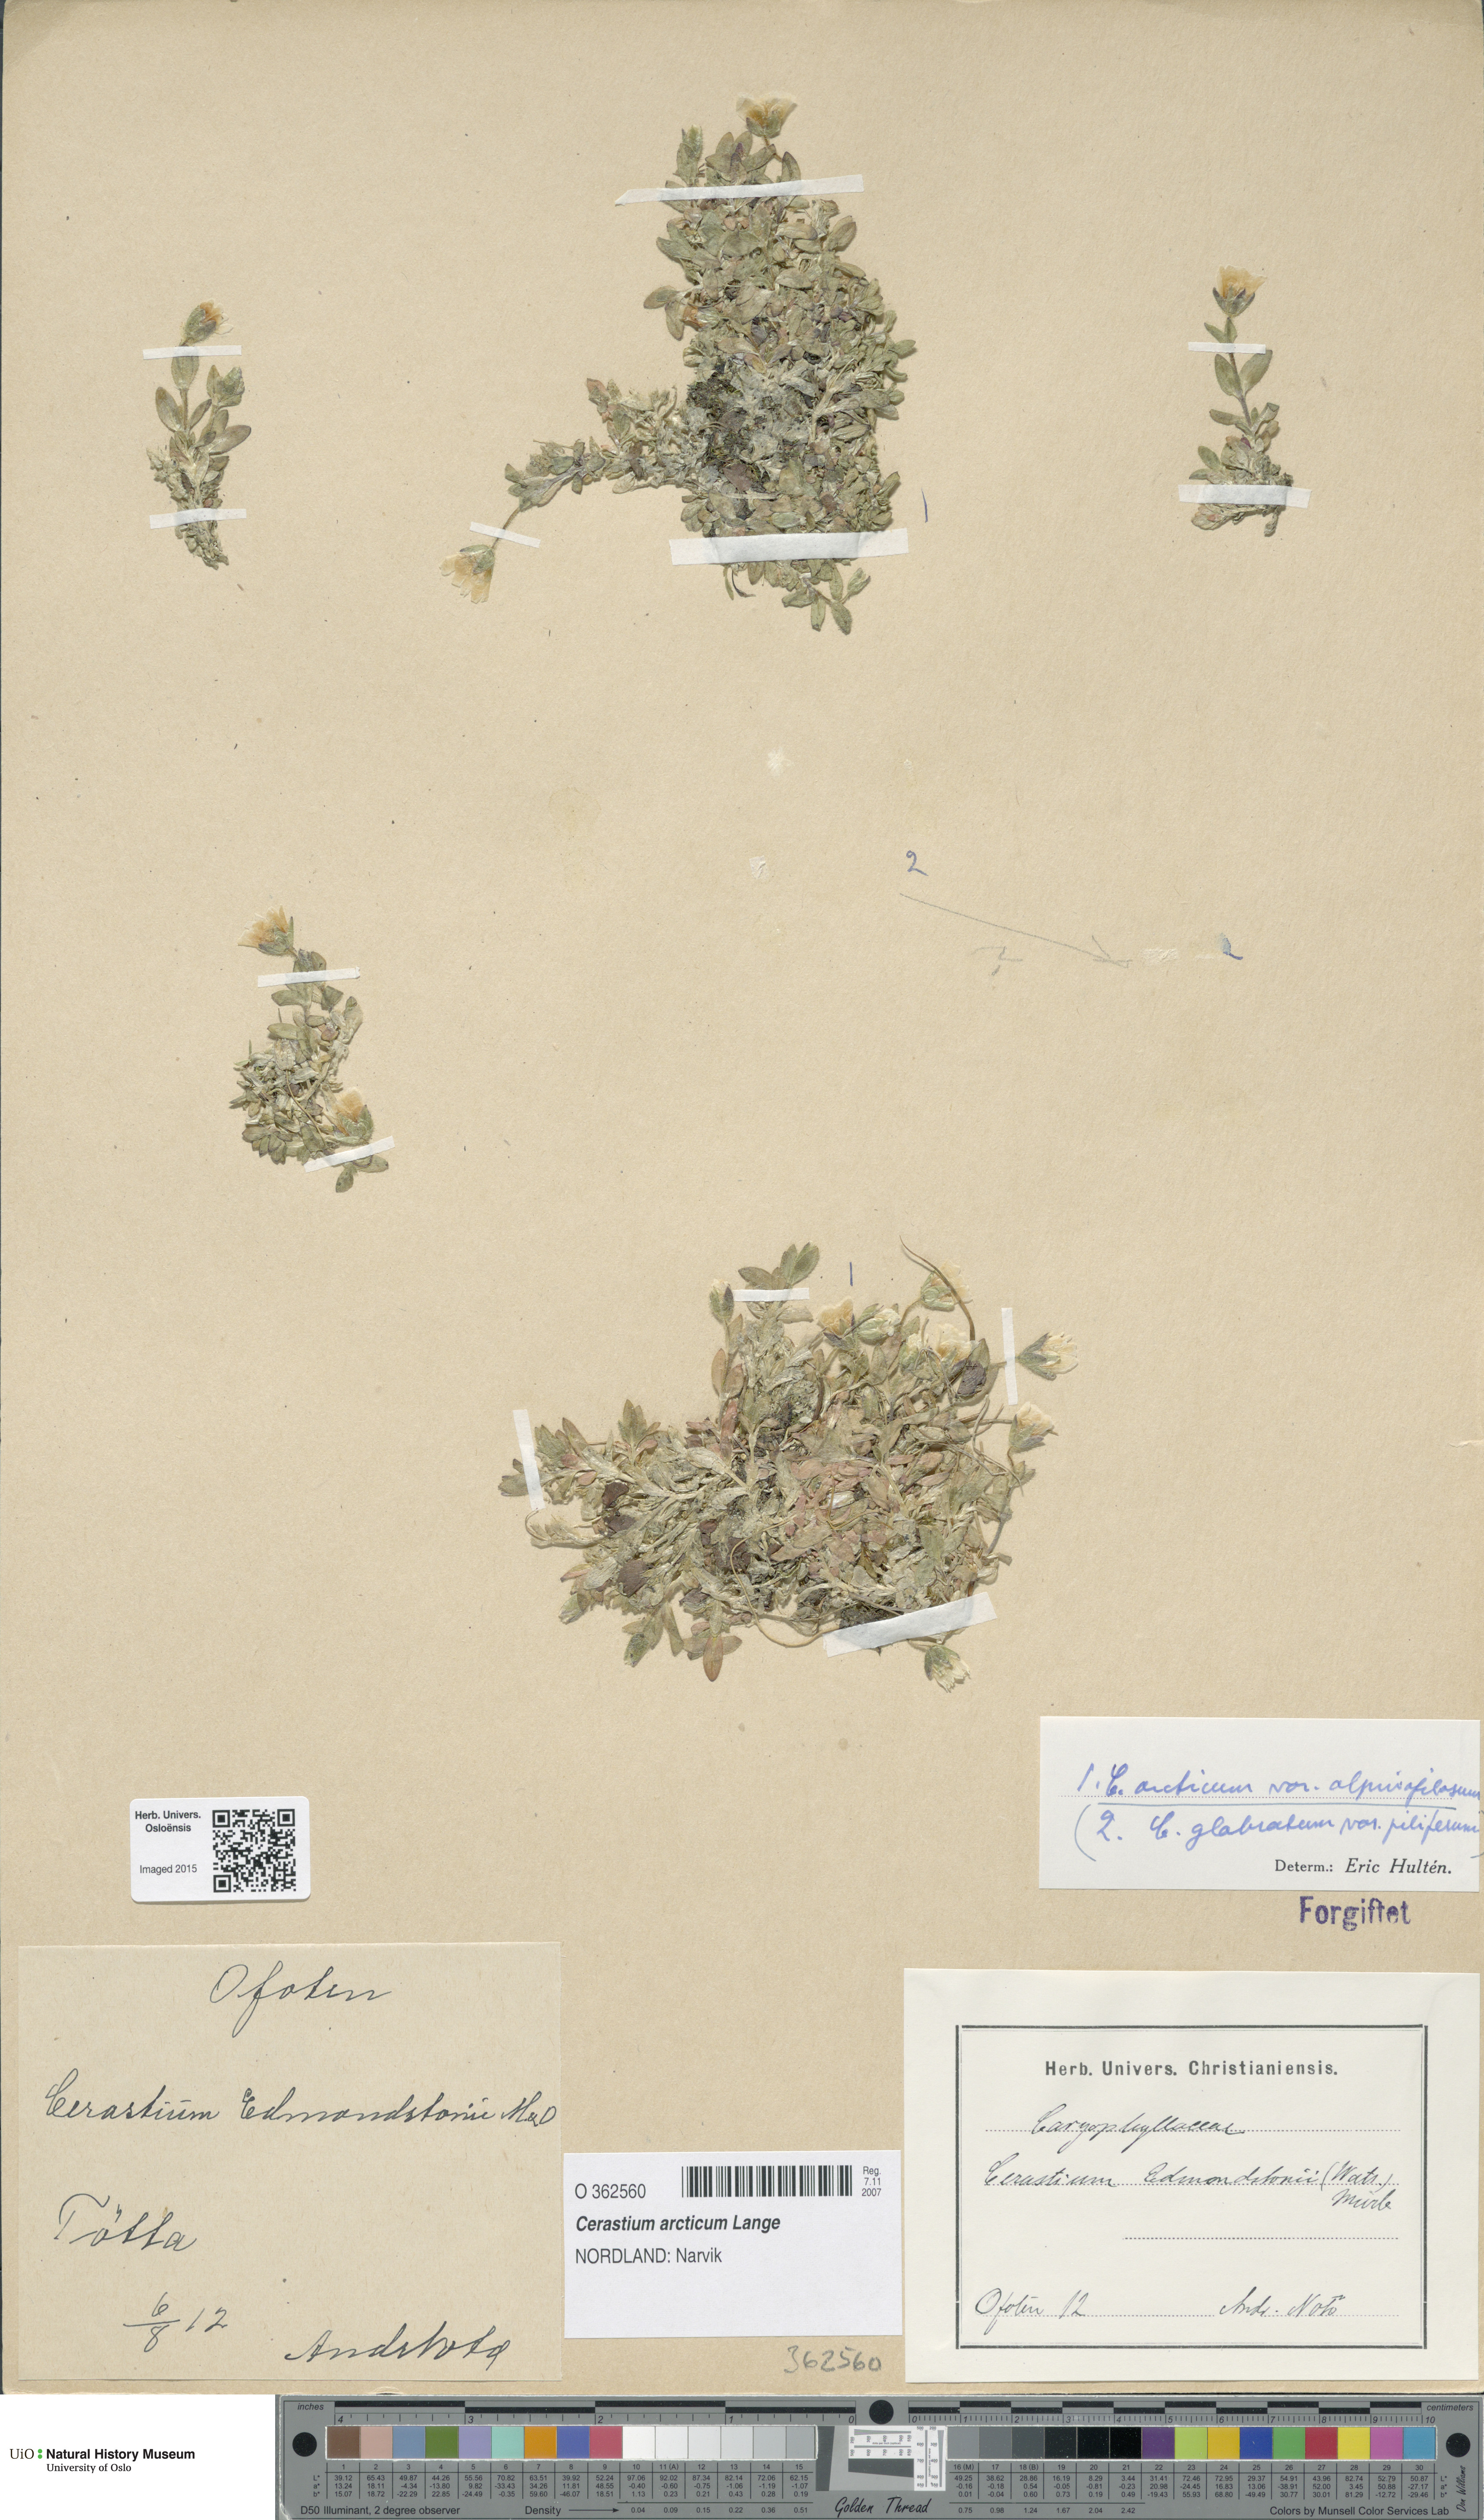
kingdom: Plantae
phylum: Tracheophyta
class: Magnoliopsida
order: Caryophyllales
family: Caryophyllaceae
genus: Cerastium
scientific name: Cerastium arcticum
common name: Arctic mouse-ear
